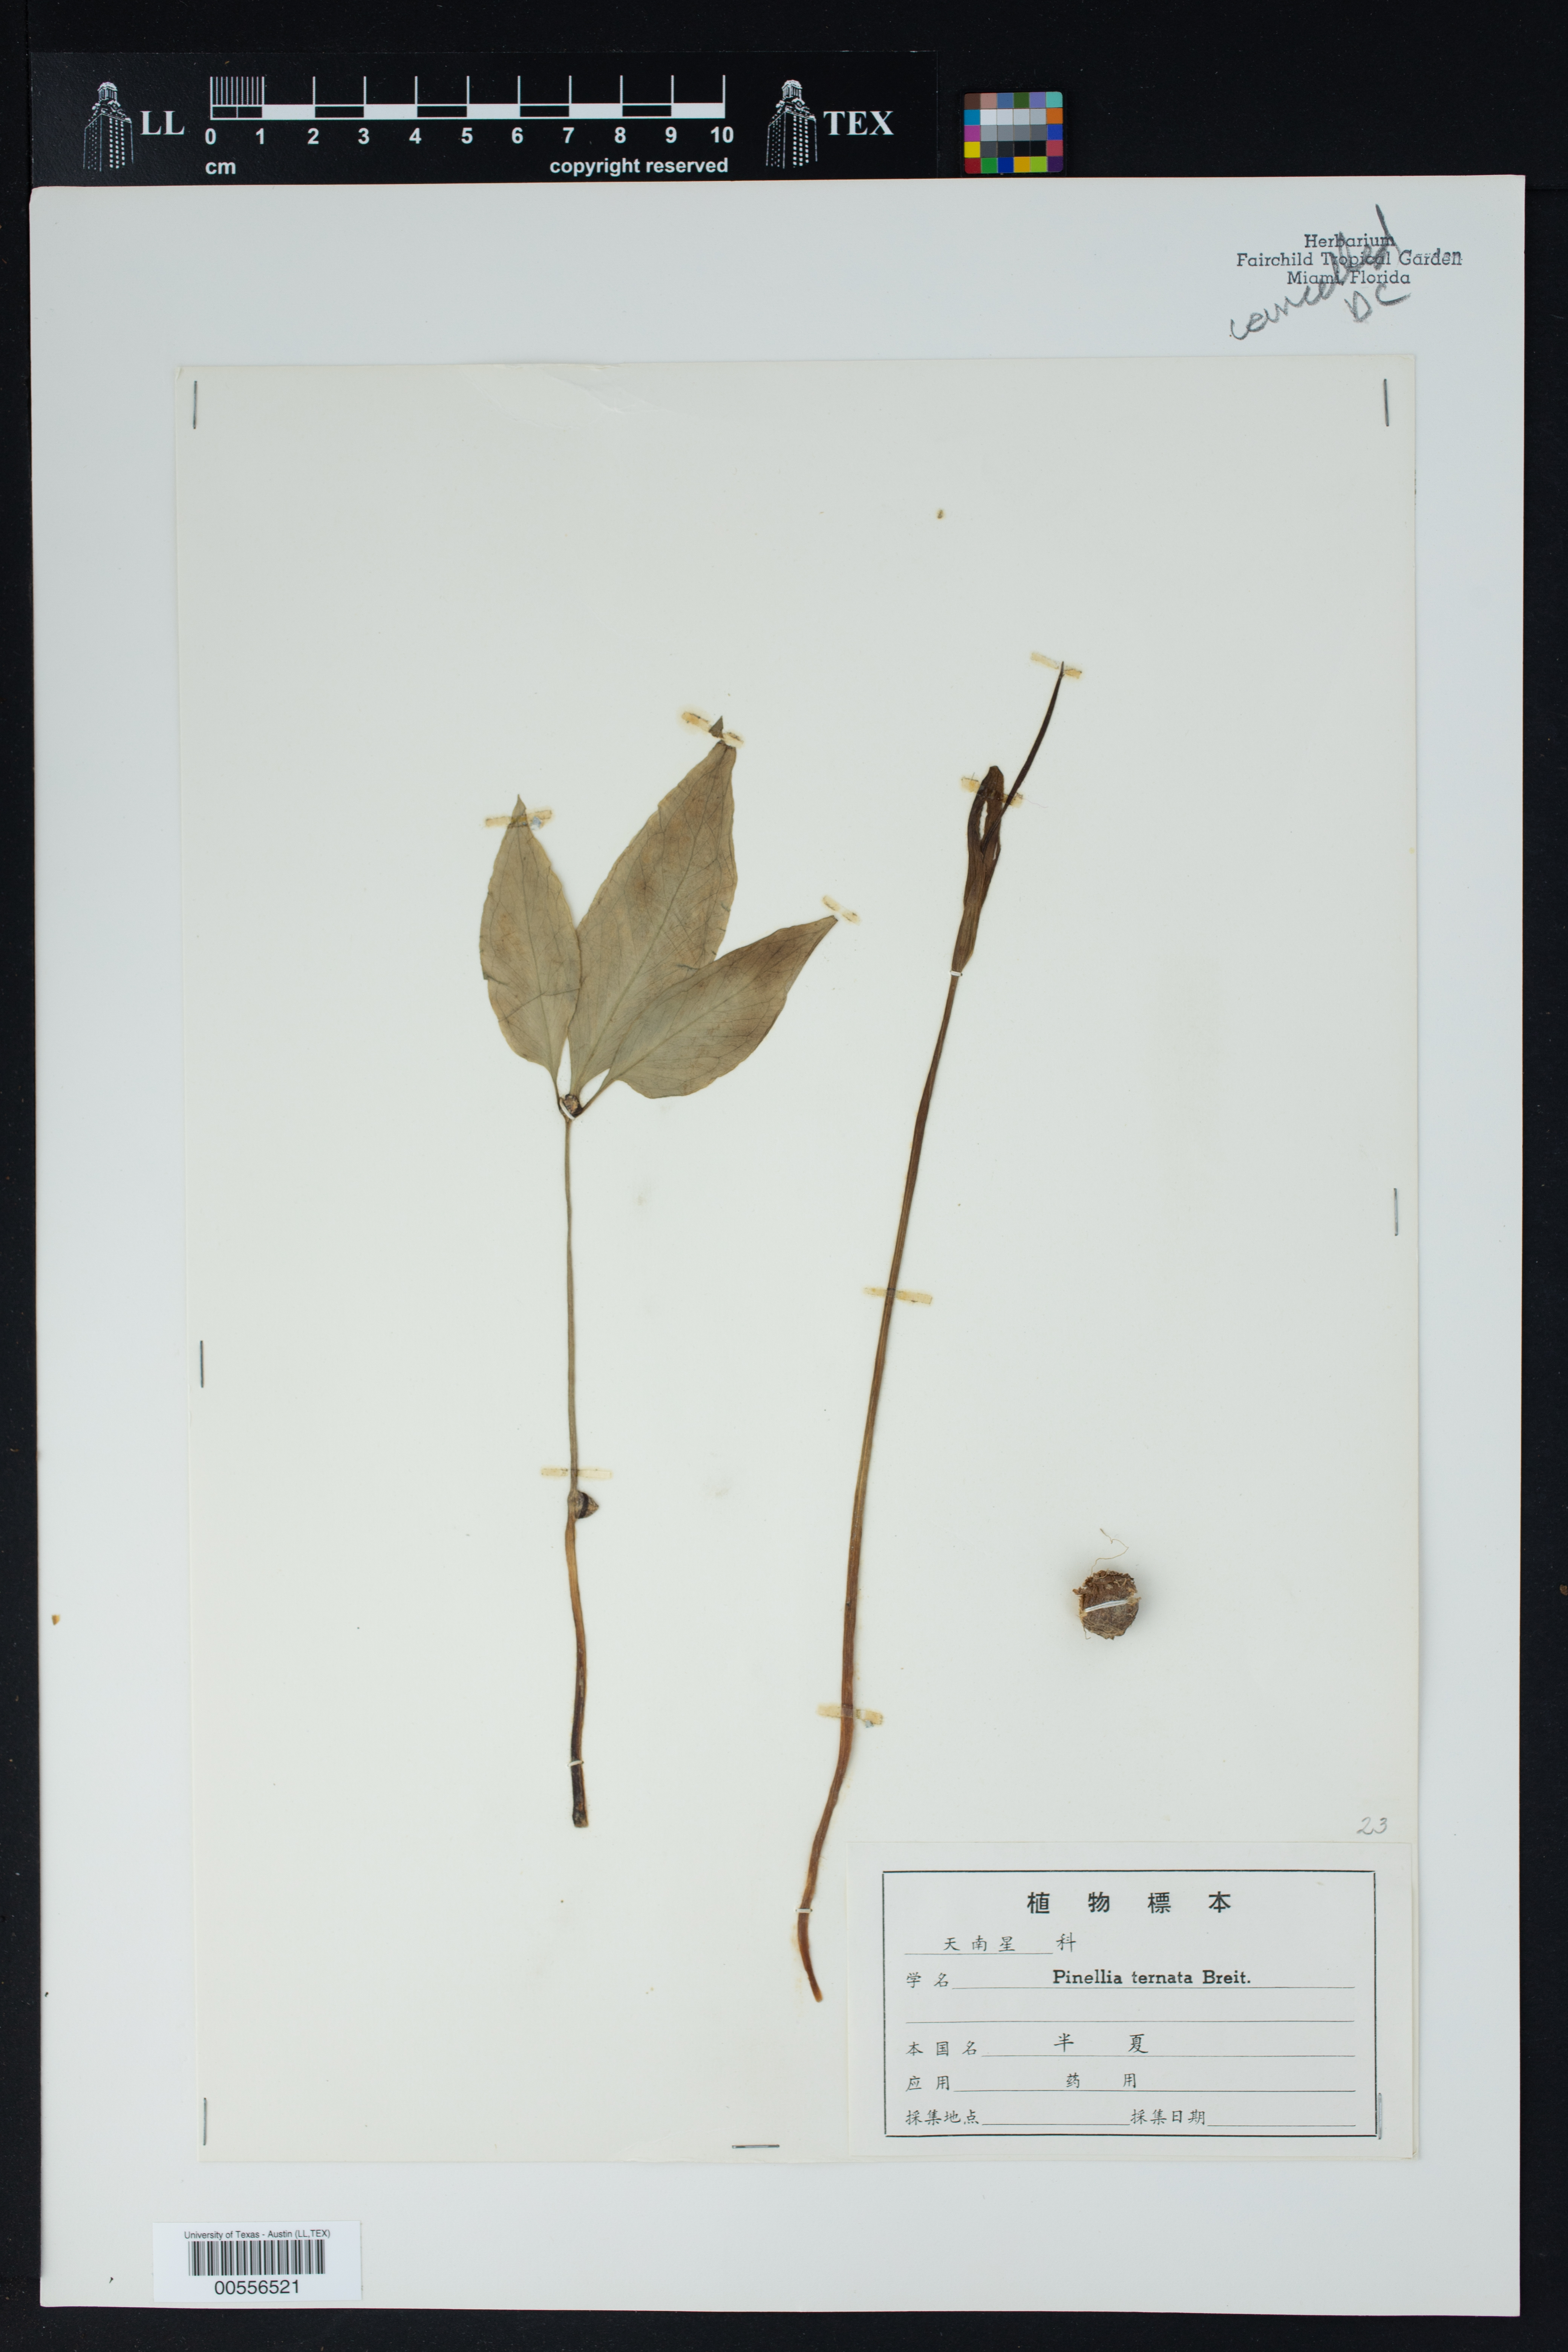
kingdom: Plantae
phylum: Tracheophyta
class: Liliopsida
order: Alismatales
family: Araceae
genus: Pinellia
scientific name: Pinellia ternata
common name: Pinellia
